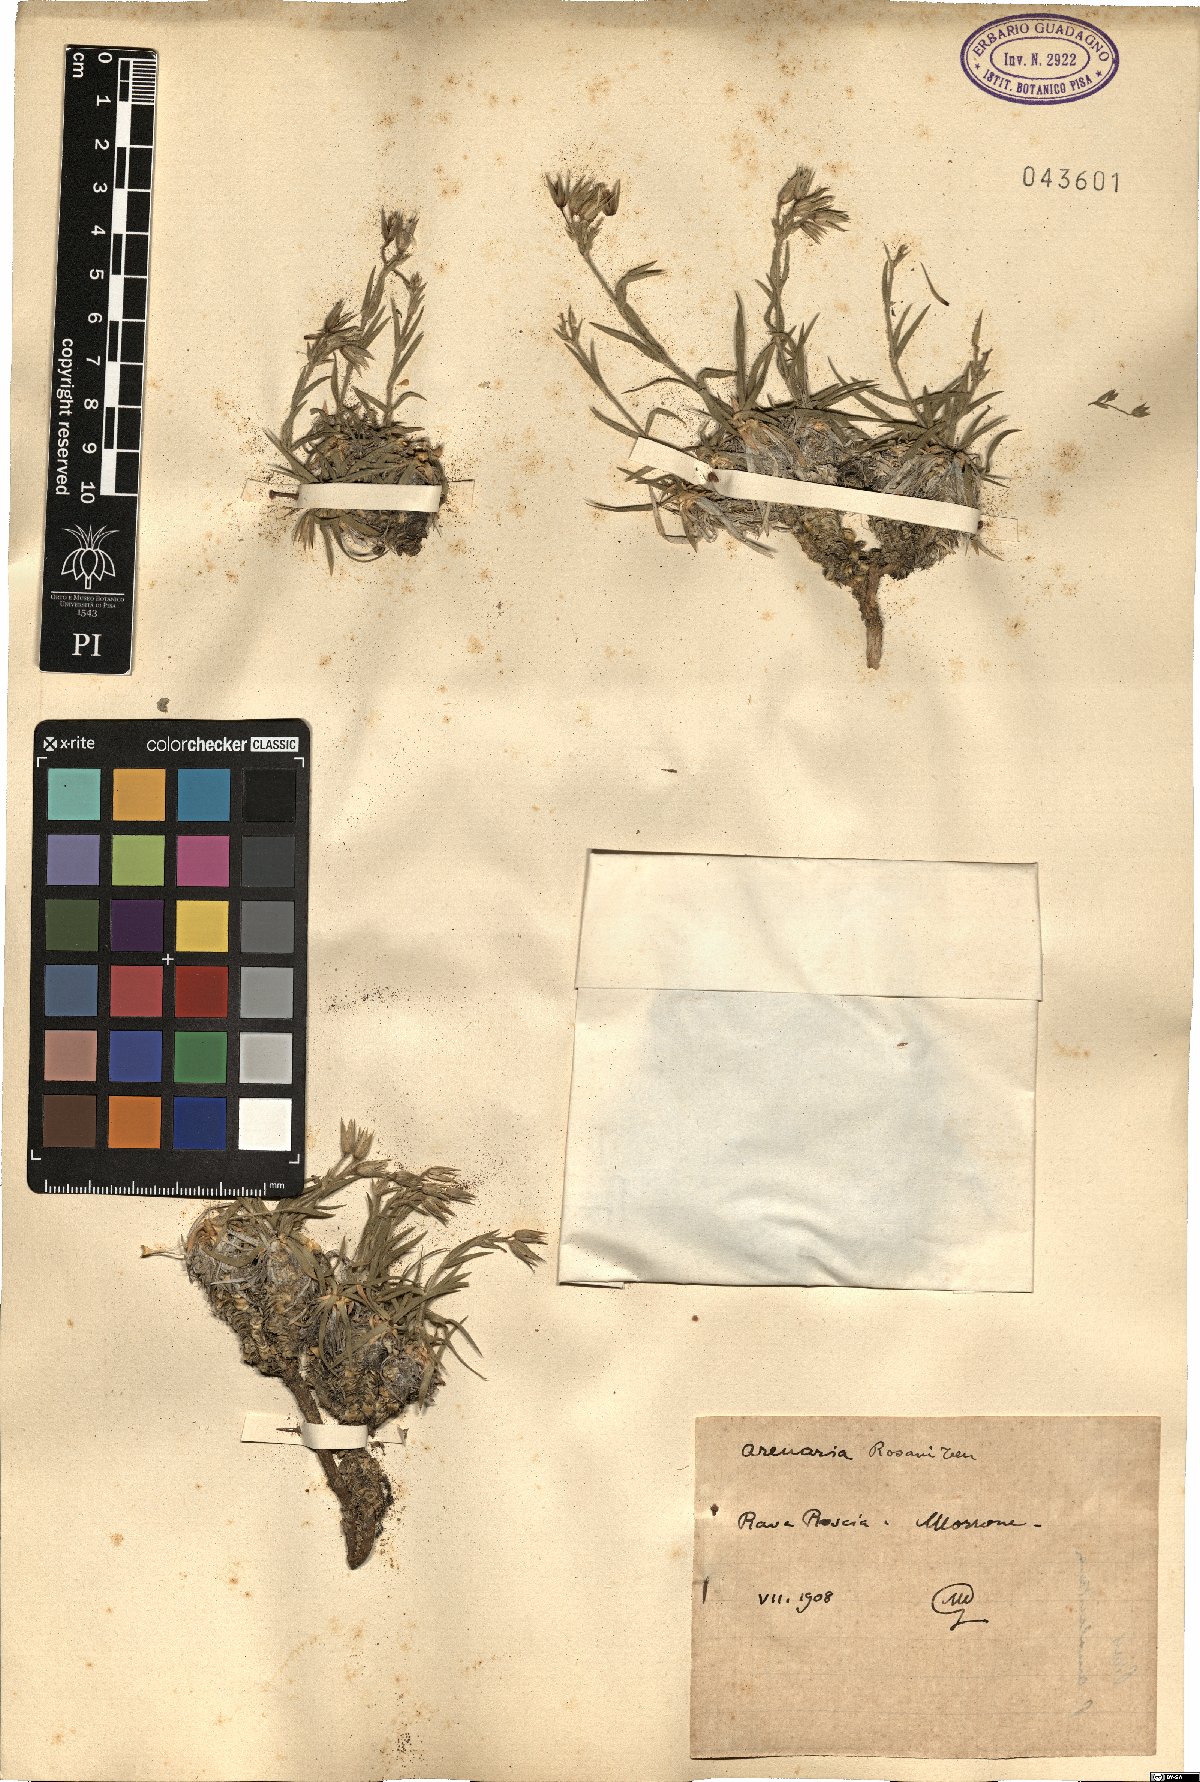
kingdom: Plantae
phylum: Tracheophyta
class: Magnoliopsida
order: Caryophyllales
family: Caryophyllaceae
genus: Mcneillia
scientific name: Mcneillia graminifolia
